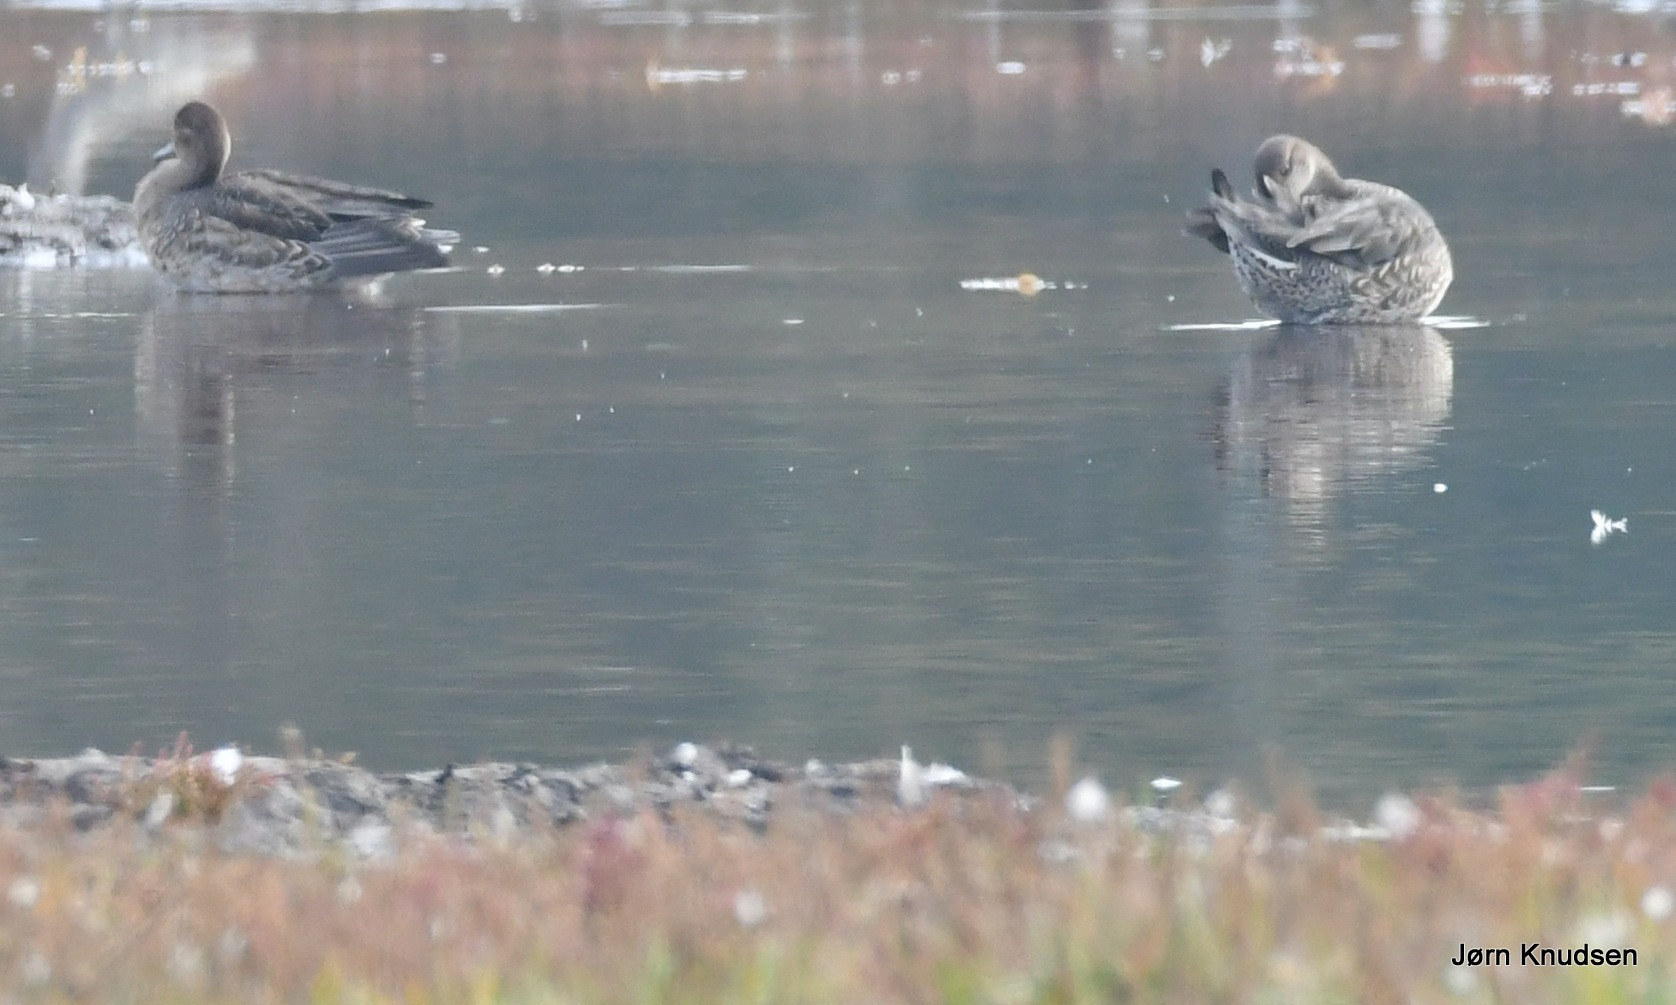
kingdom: Animalia
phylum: Chordata
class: Aves
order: Anseriformes
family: Anatidae
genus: Anas
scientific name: Anas crecca
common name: Krikand
